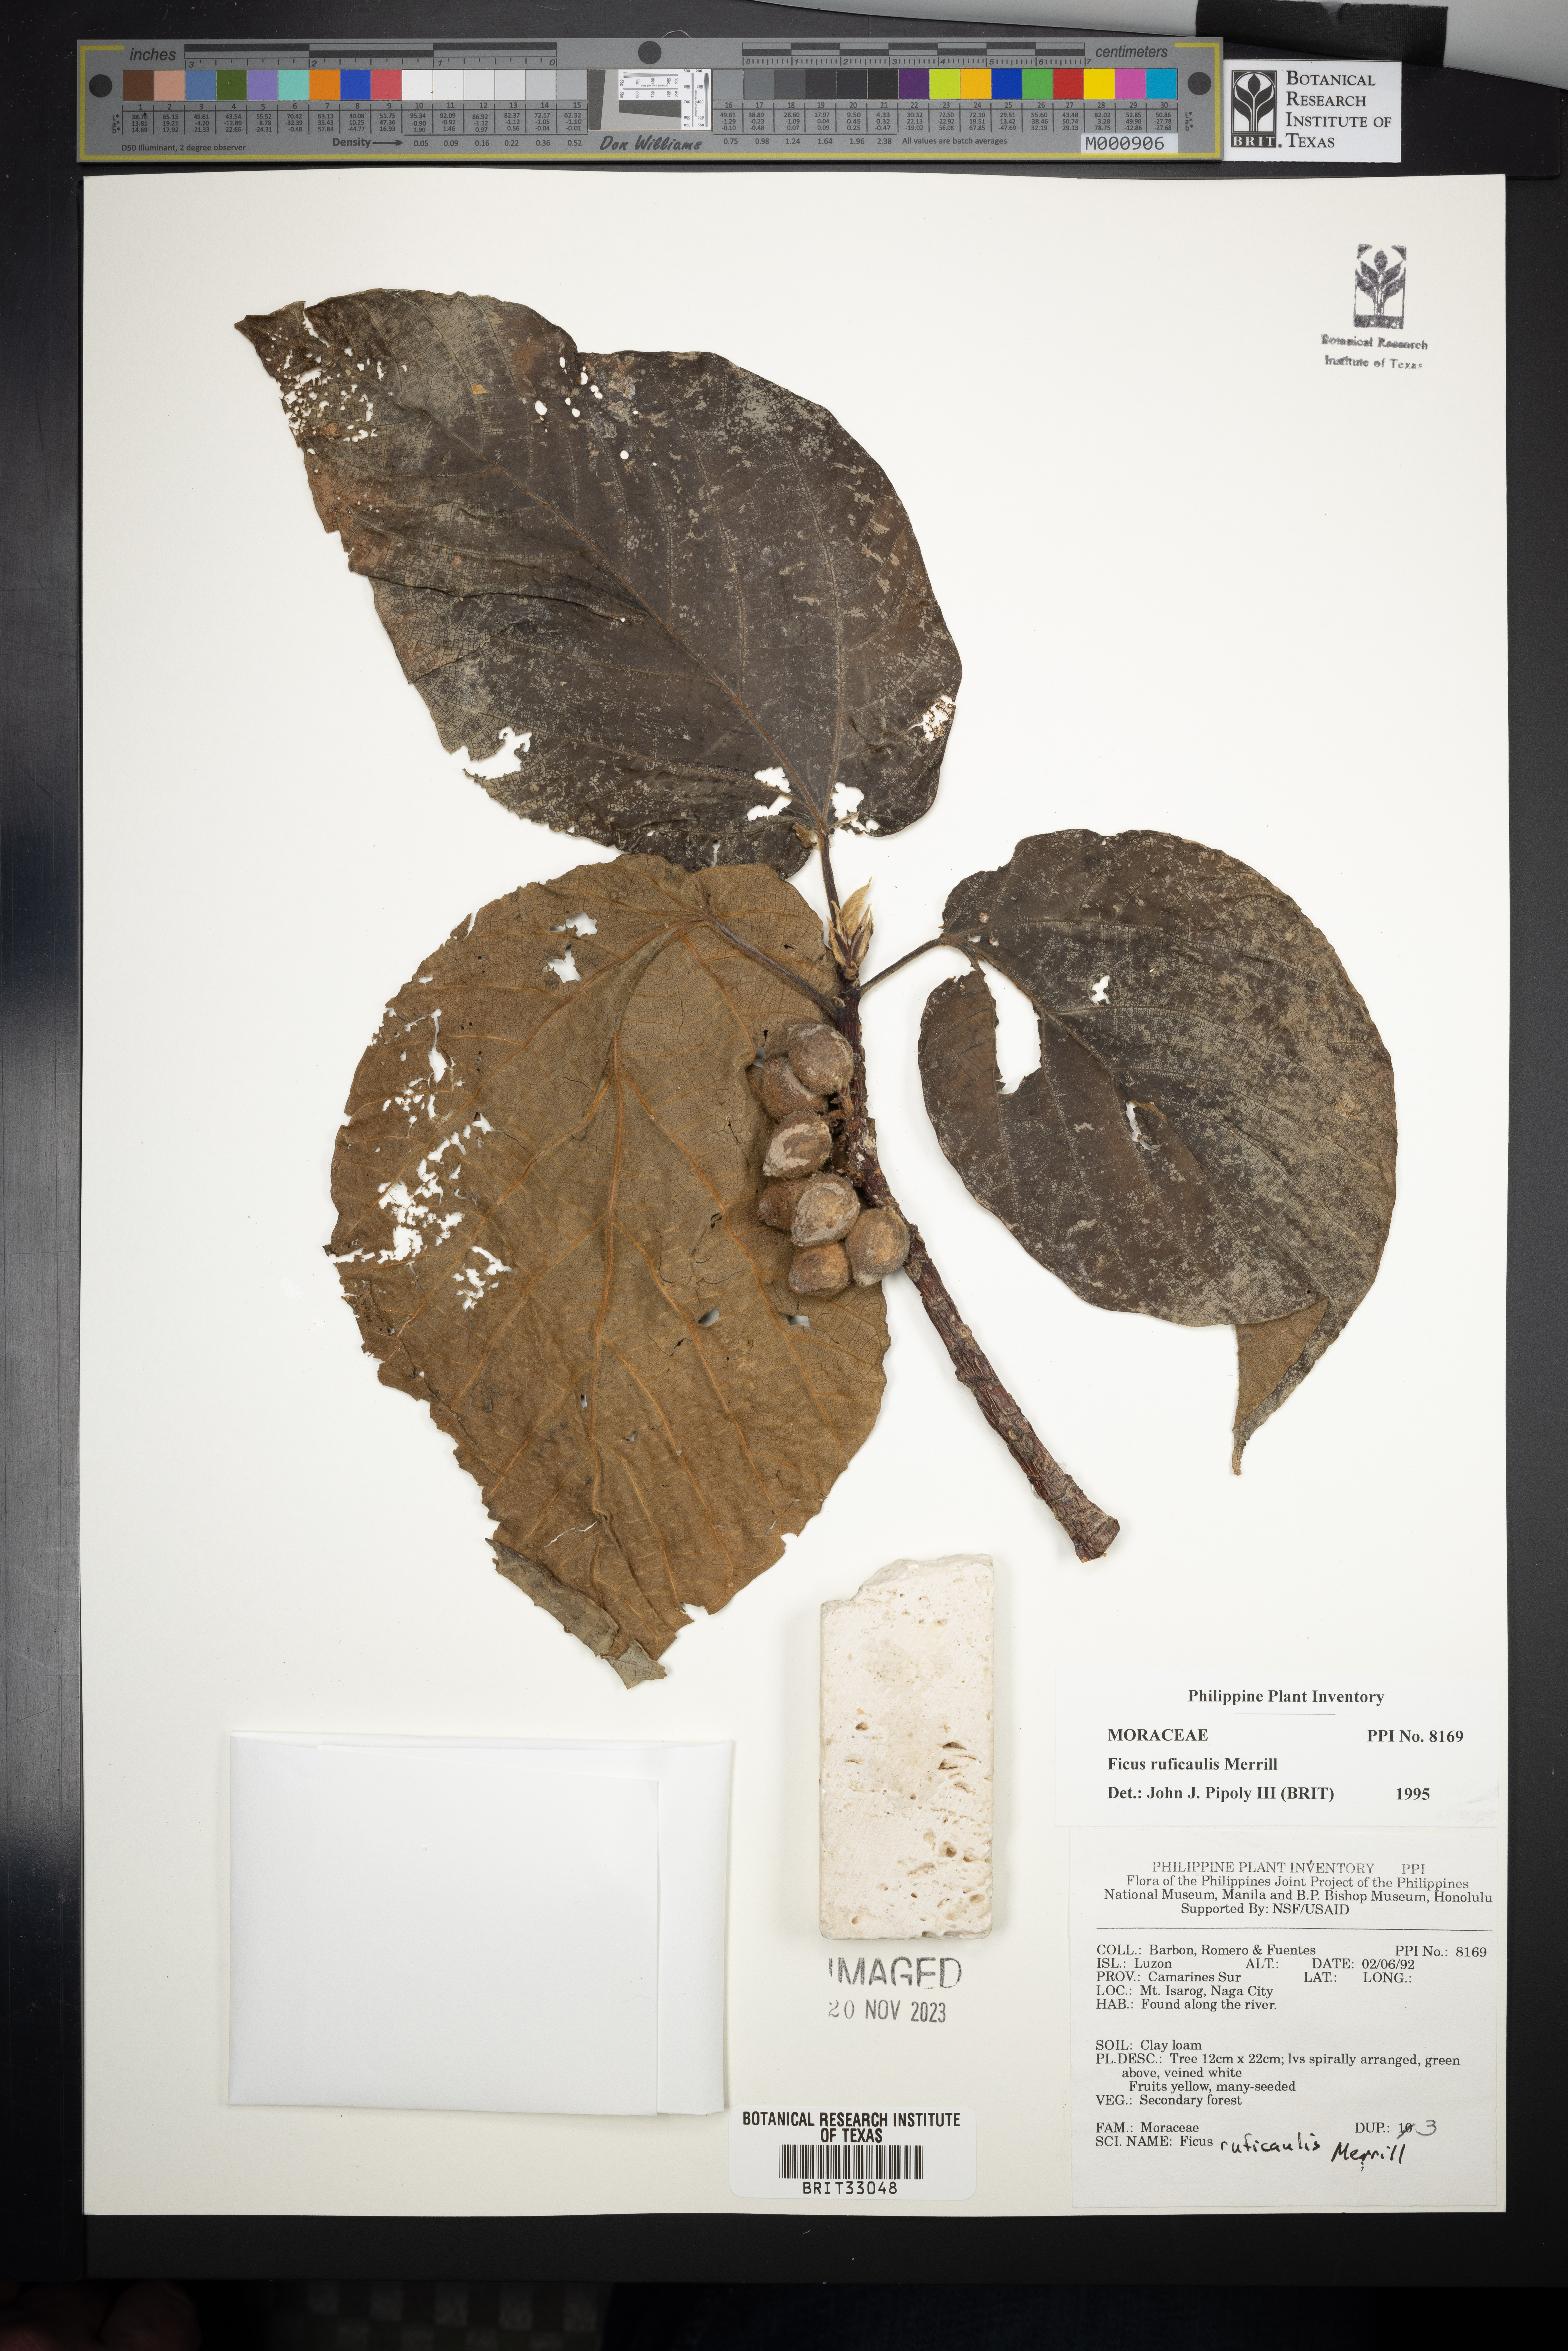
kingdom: Plantae
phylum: Tracheophyta
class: Magnoliopsida
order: Rosales
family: Moraceae
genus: Ficus
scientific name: Ficus ruficaulis
